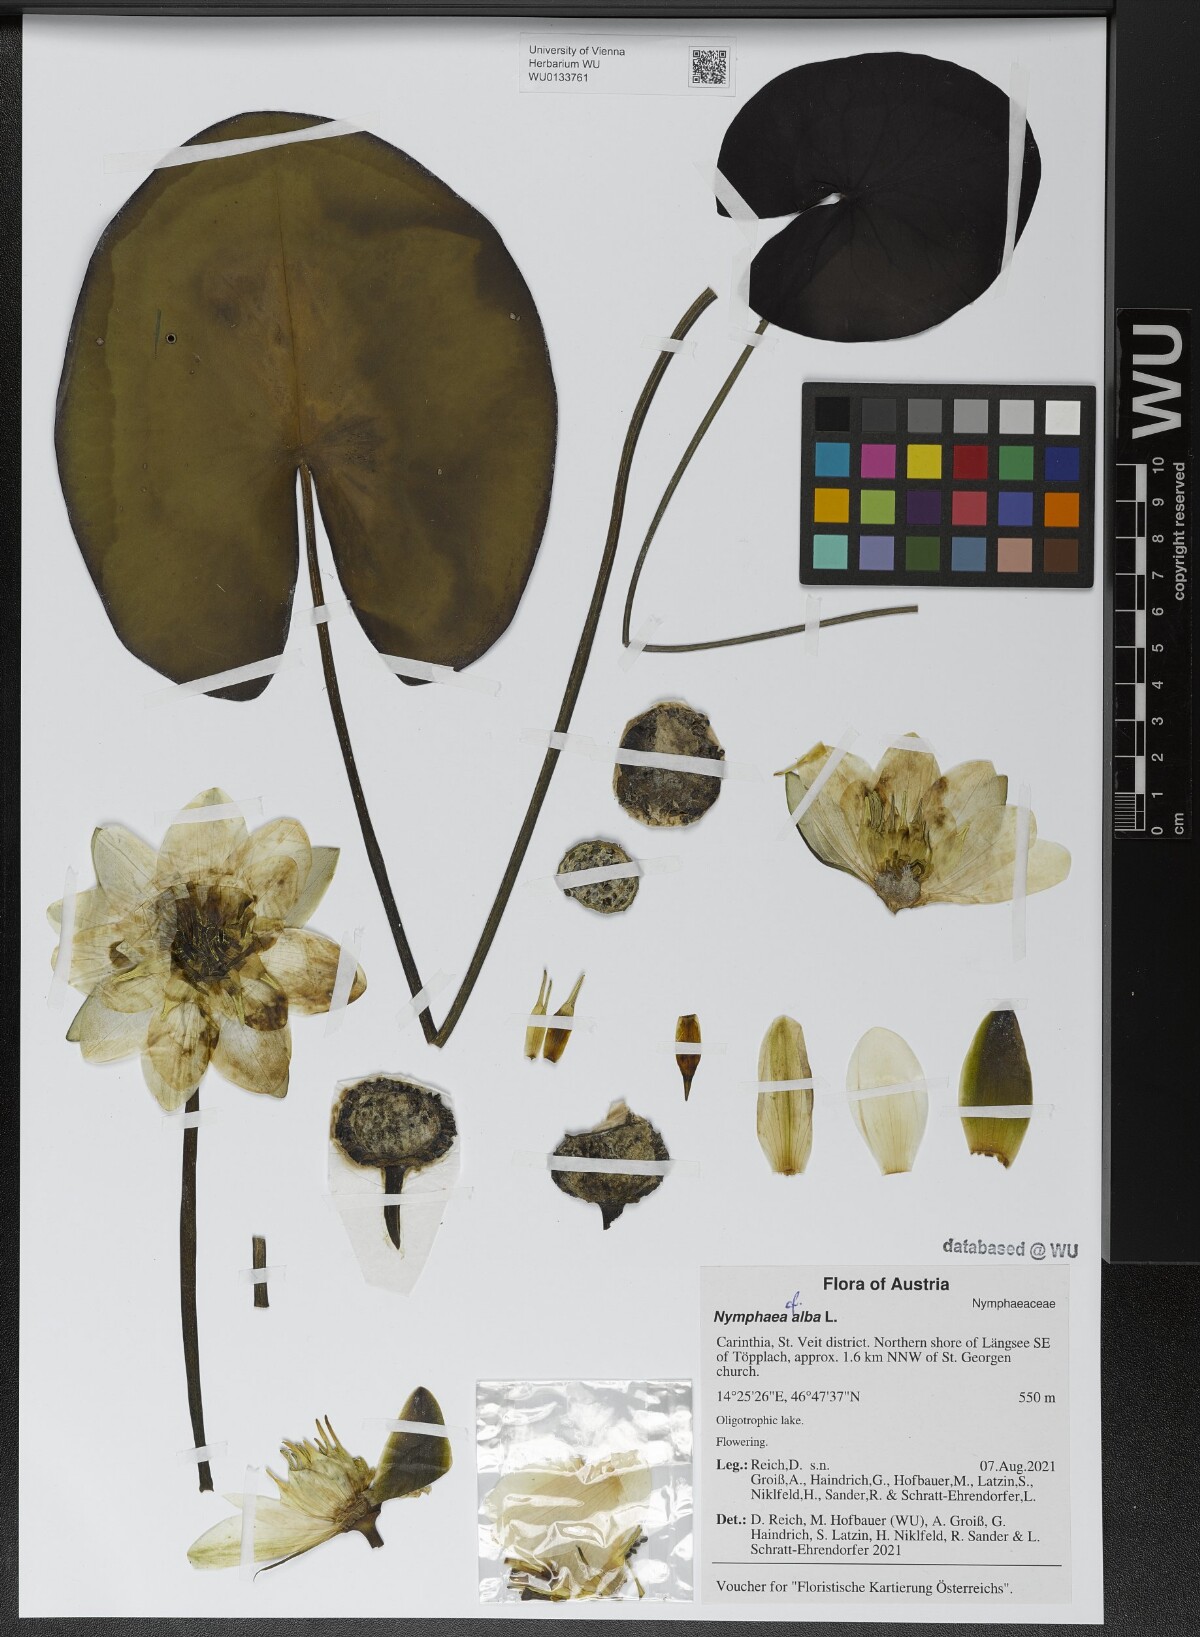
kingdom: Plantae
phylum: Tracheophyta
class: Magnoliopsida
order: Nymphaeales
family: Nymphaeaceae
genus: Nymphaea
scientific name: Nymphaea alba
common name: White water-lily
